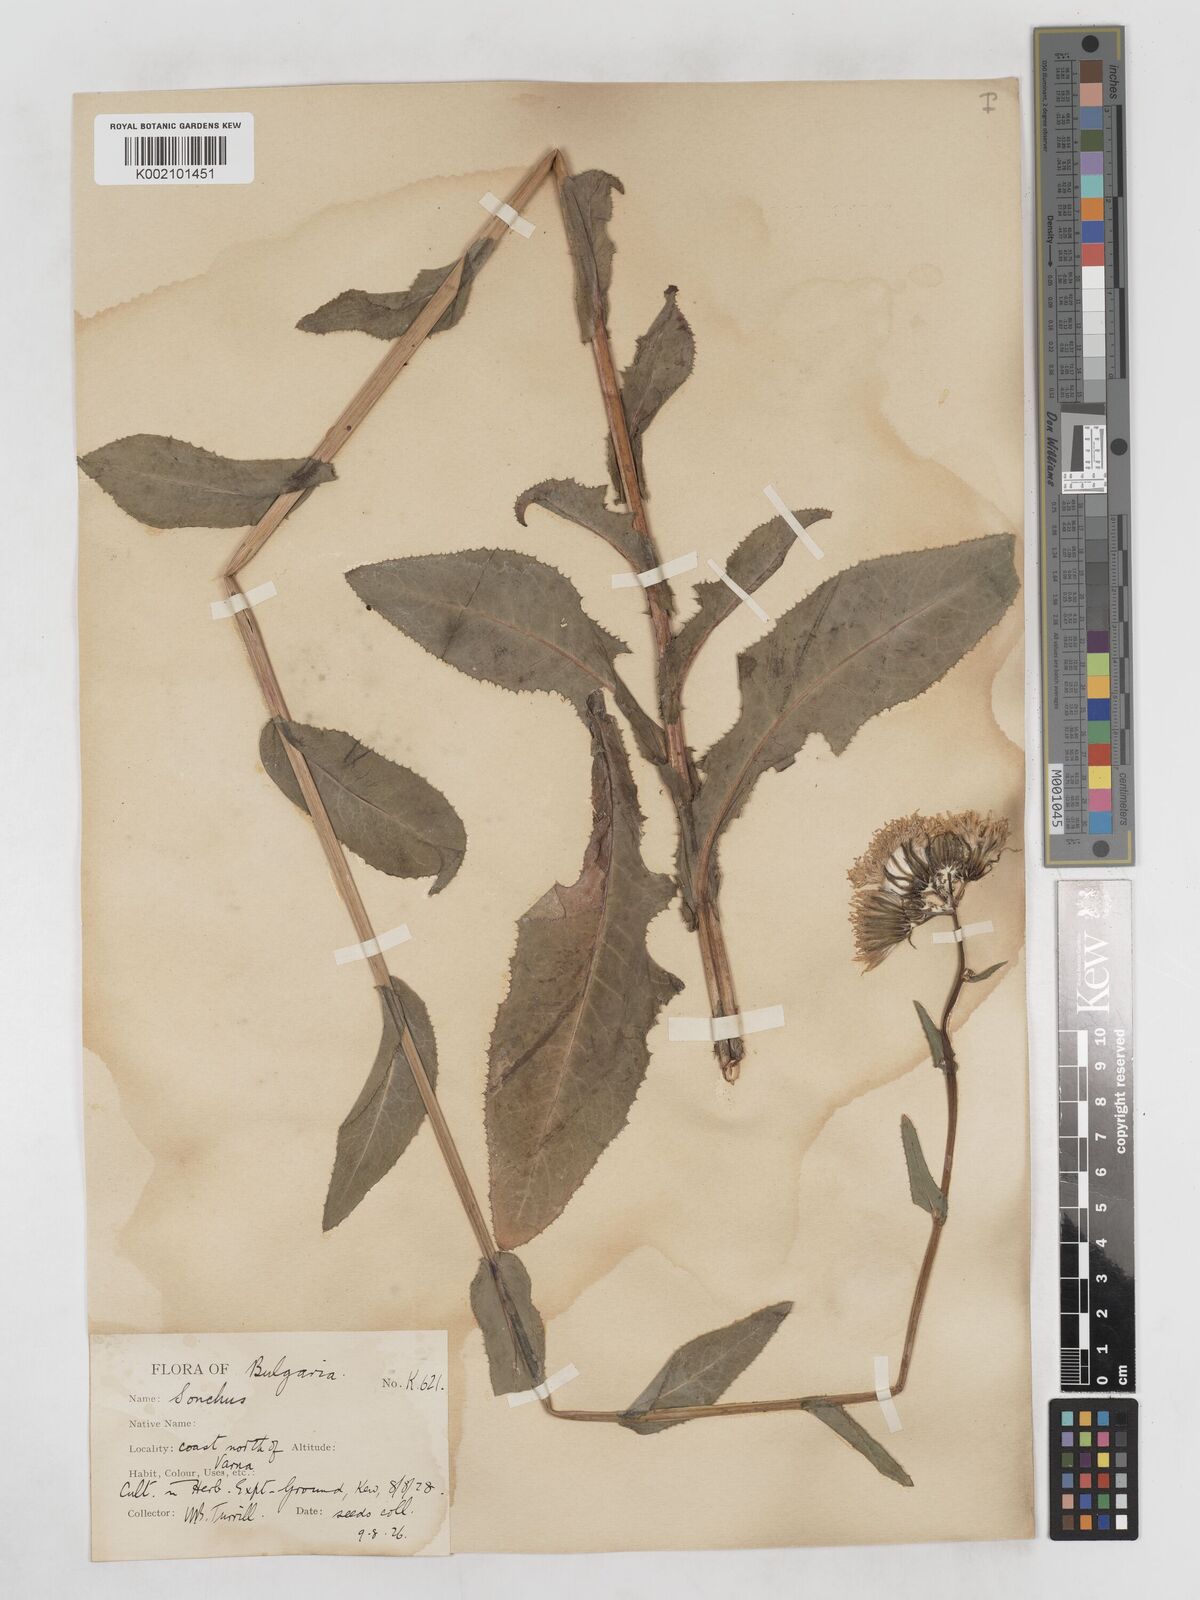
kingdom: Plantae
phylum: Tracheophyta
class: Magnoliopsida
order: Asterales
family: Asteraceae
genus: Sonchus
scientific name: Sonchus arvensis
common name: Perennial sow-thistle
